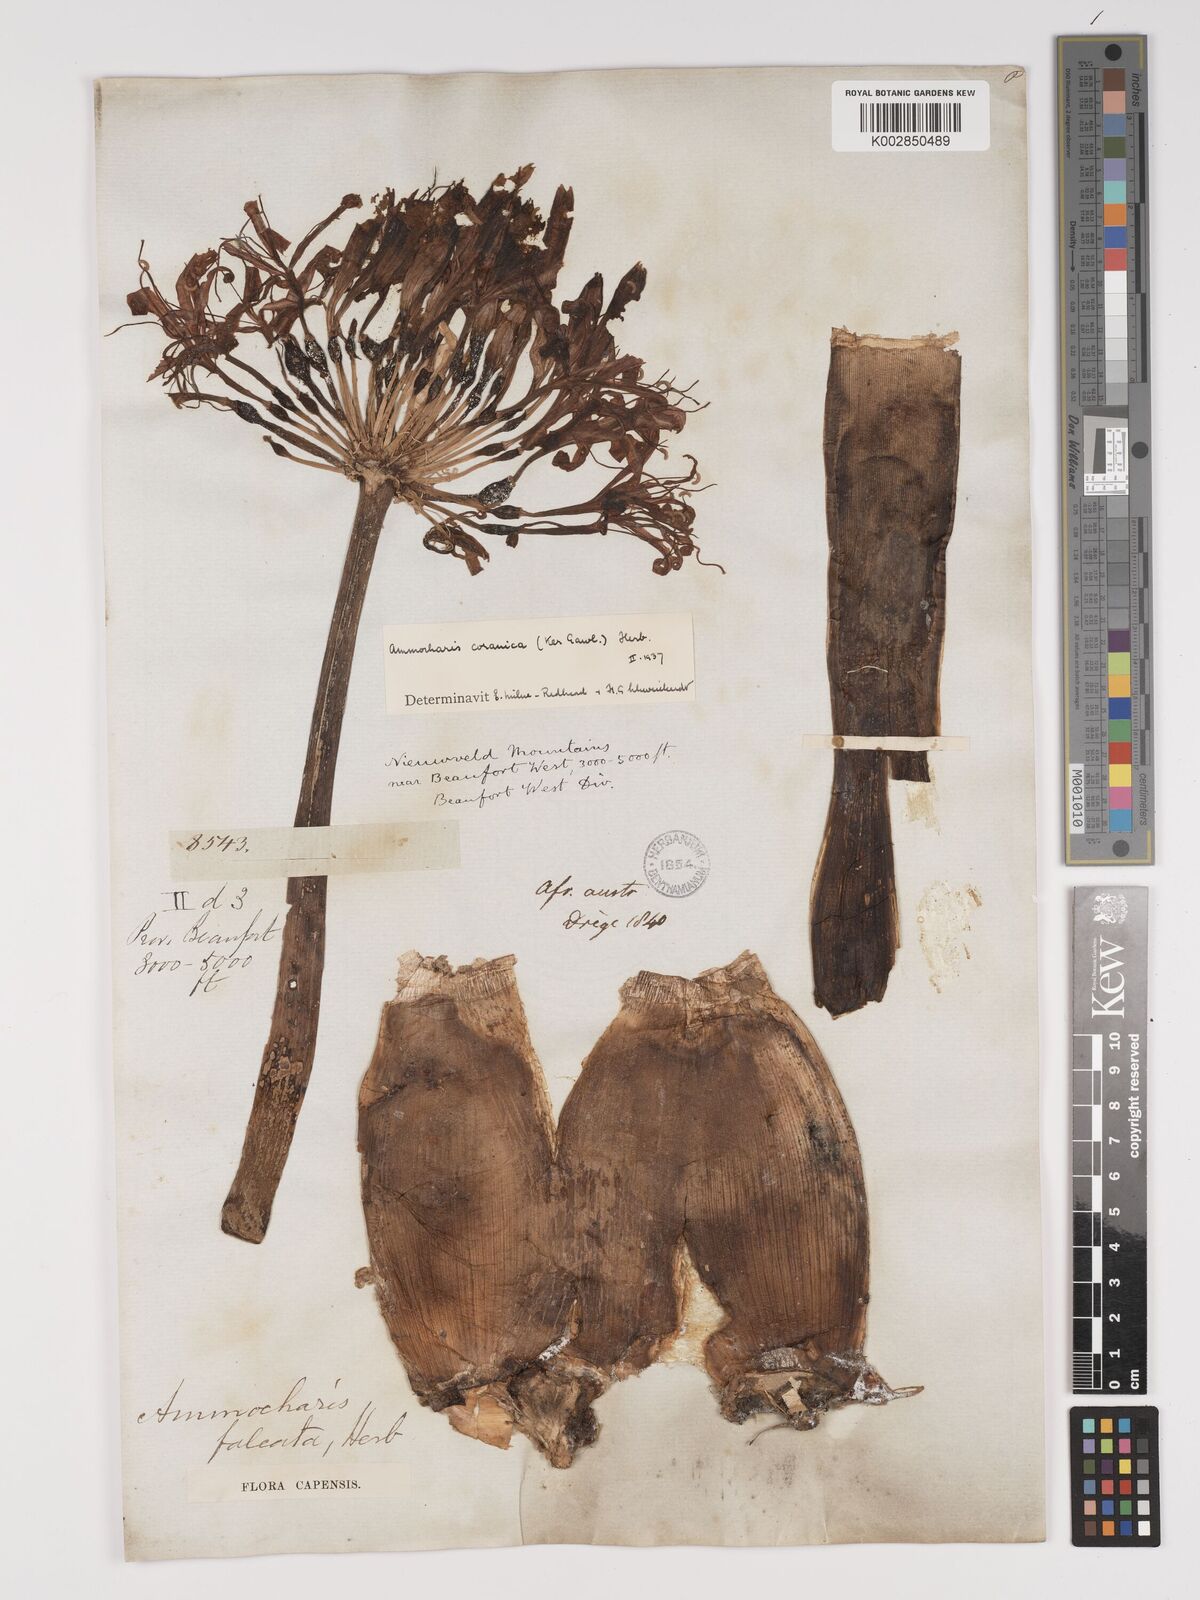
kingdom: Plantae
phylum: Tracheophyta
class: Liliopsida
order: Asparagales
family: Amaryllidaceae
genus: Ammocharis
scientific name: Ammocharis coranica
